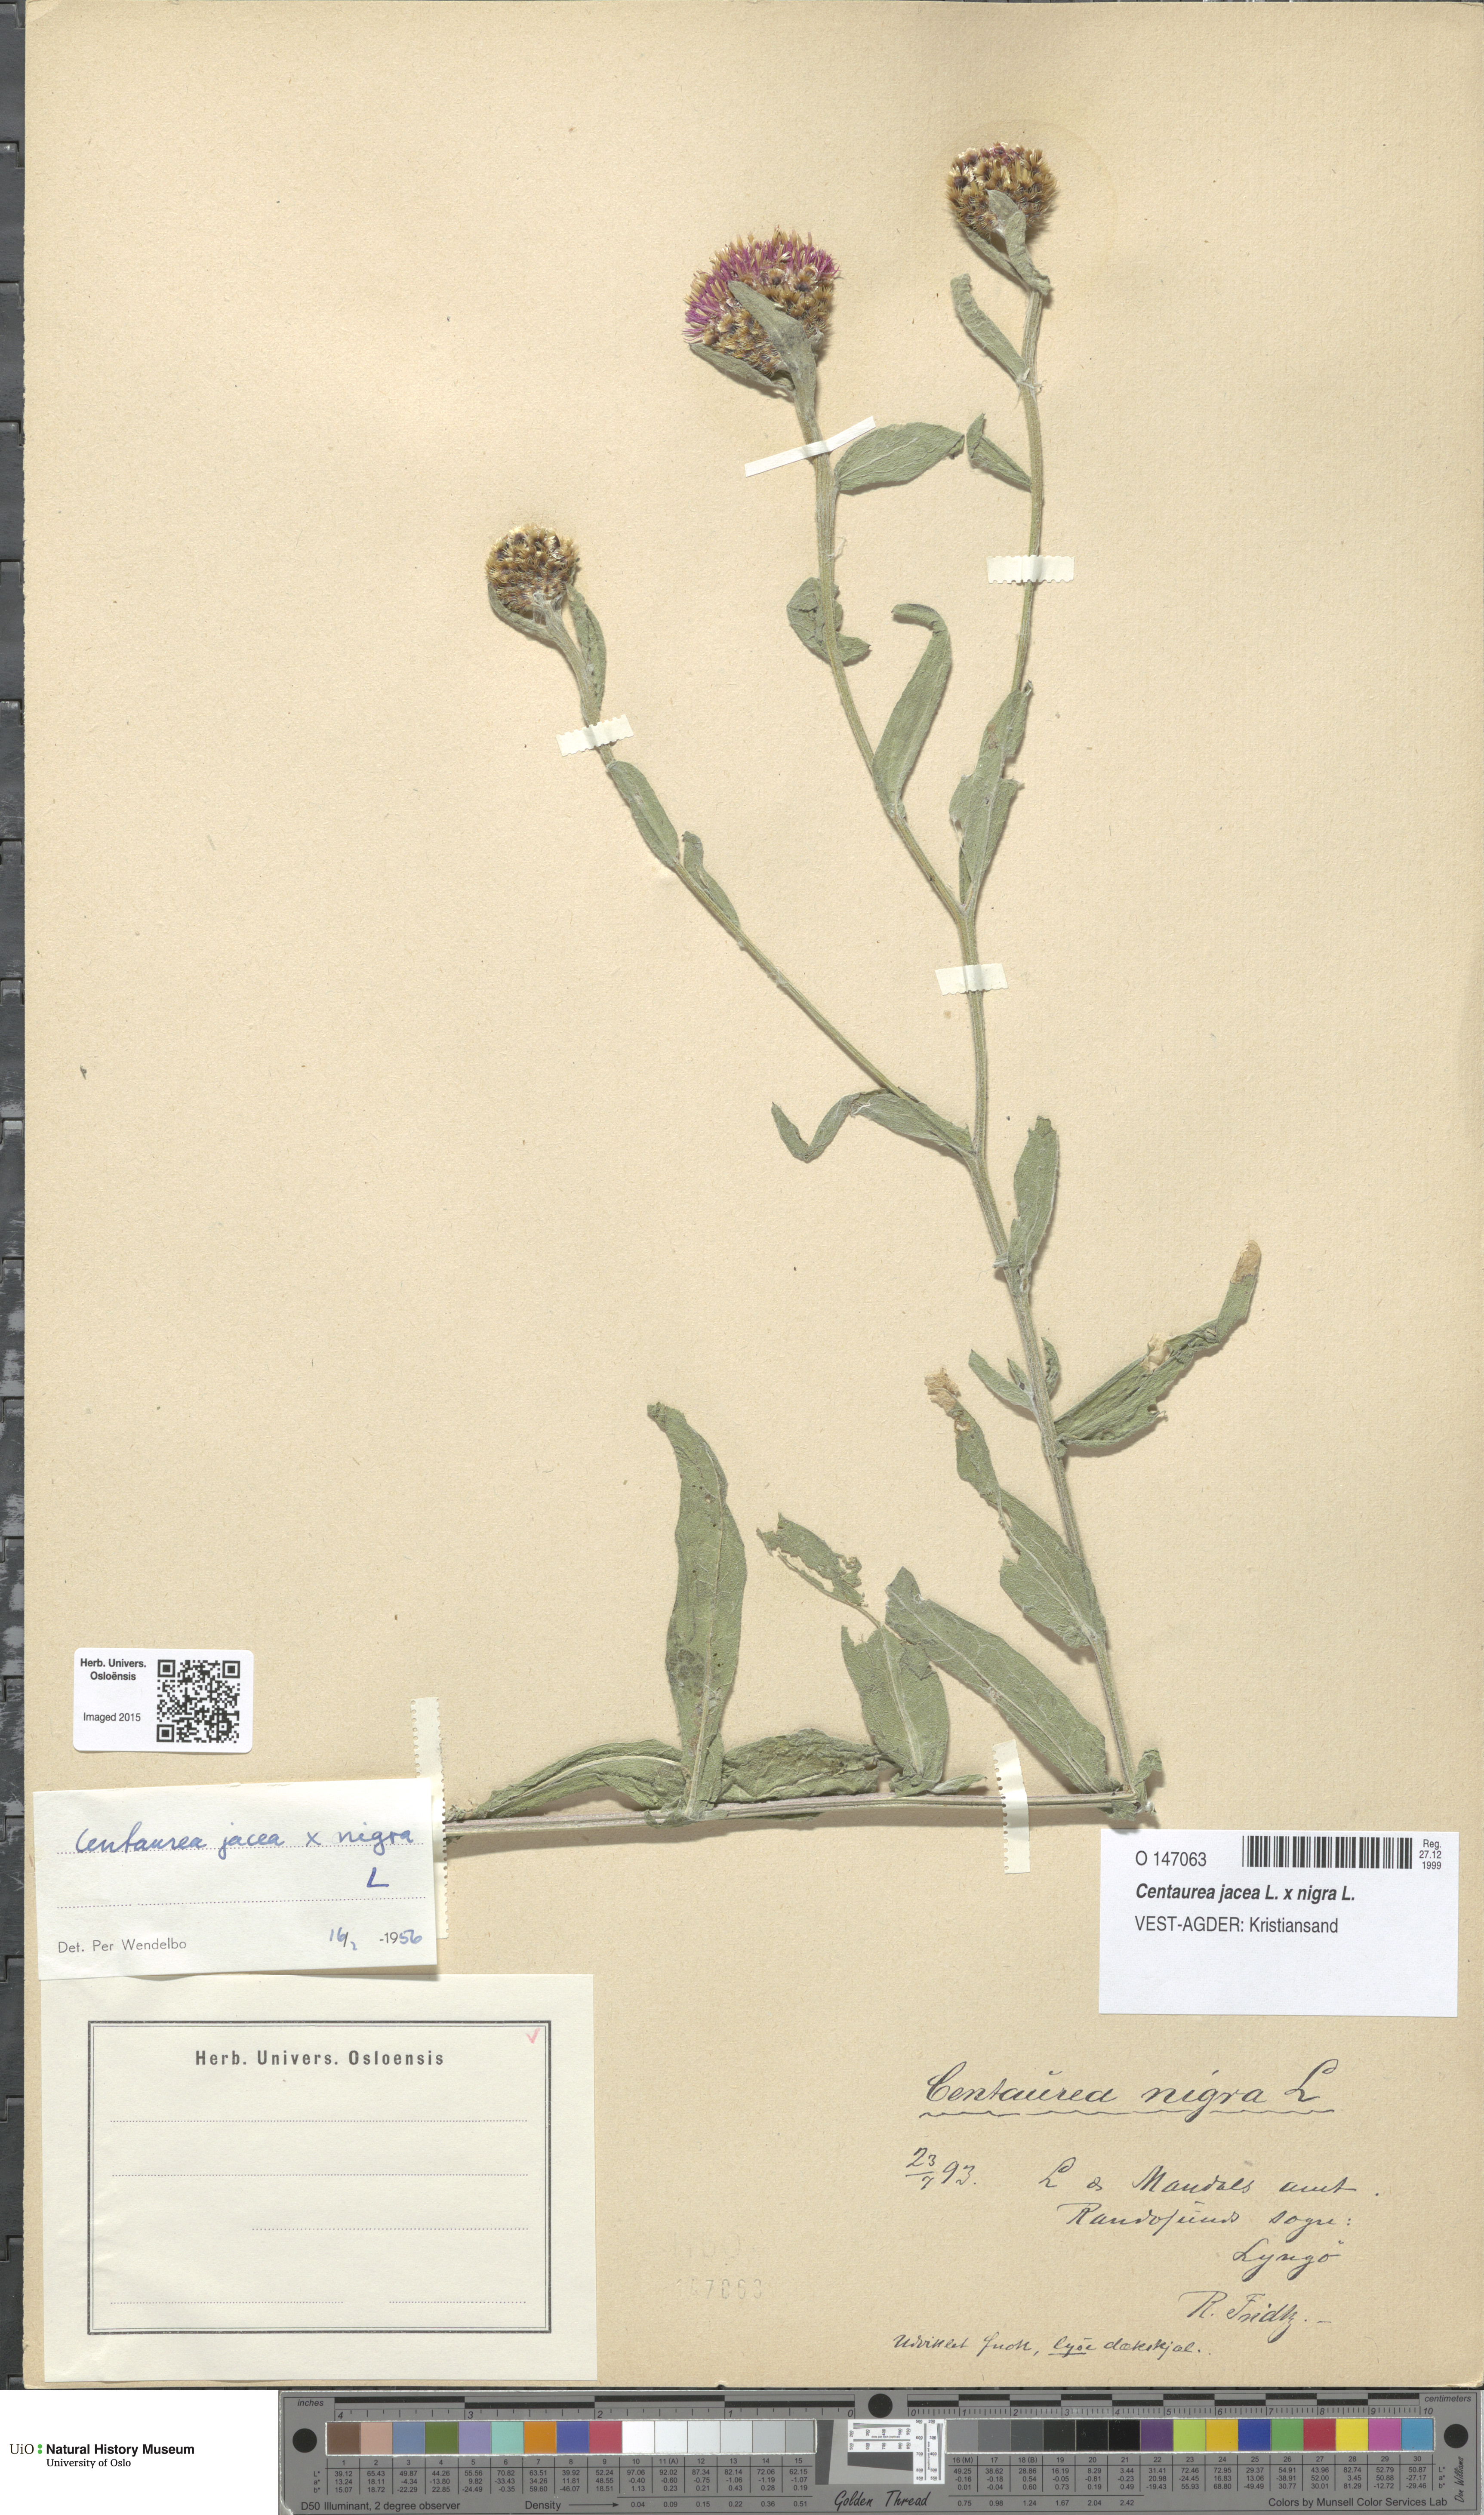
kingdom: Plantae
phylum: Tracheophyta
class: Magnoliopsida
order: Asterales
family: Asteraceae
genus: Centaurea
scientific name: Centaurea
